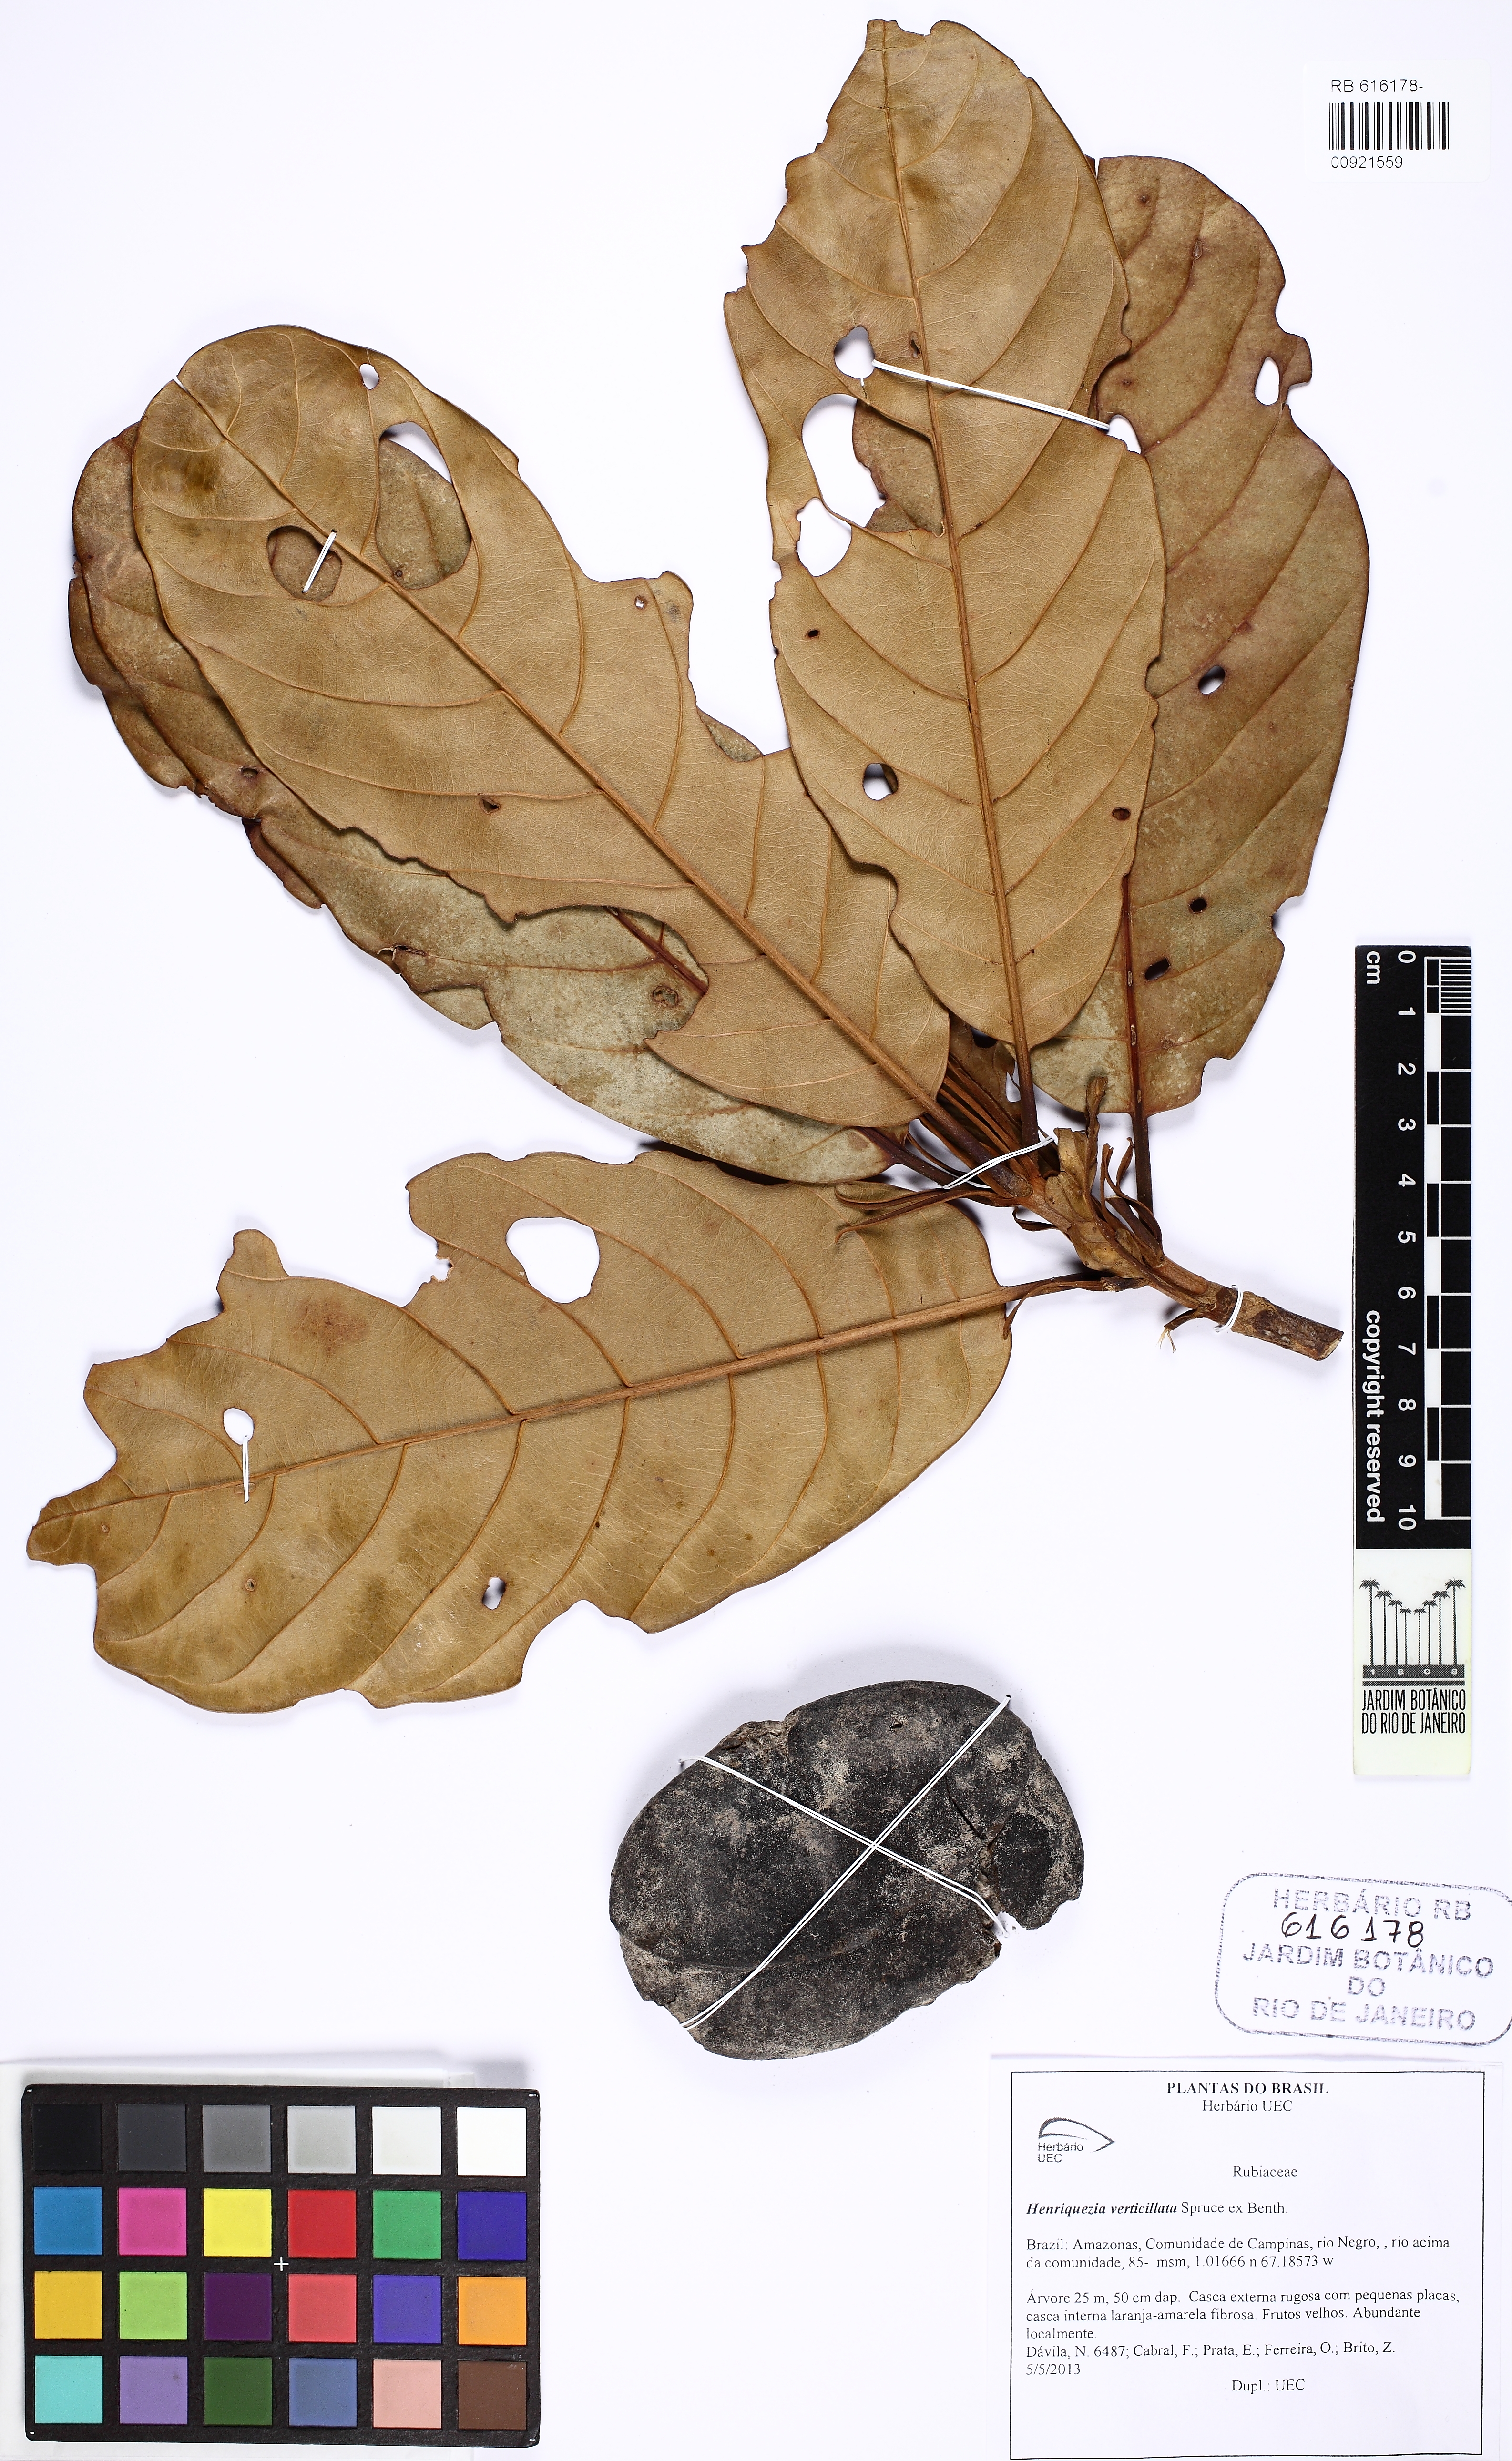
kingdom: Plantae
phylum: Tracheophyta
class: Magnoliopsida
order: Gentianales
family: Rubiaceae
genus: Henriquezia
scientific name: Henriquezia verticillata
